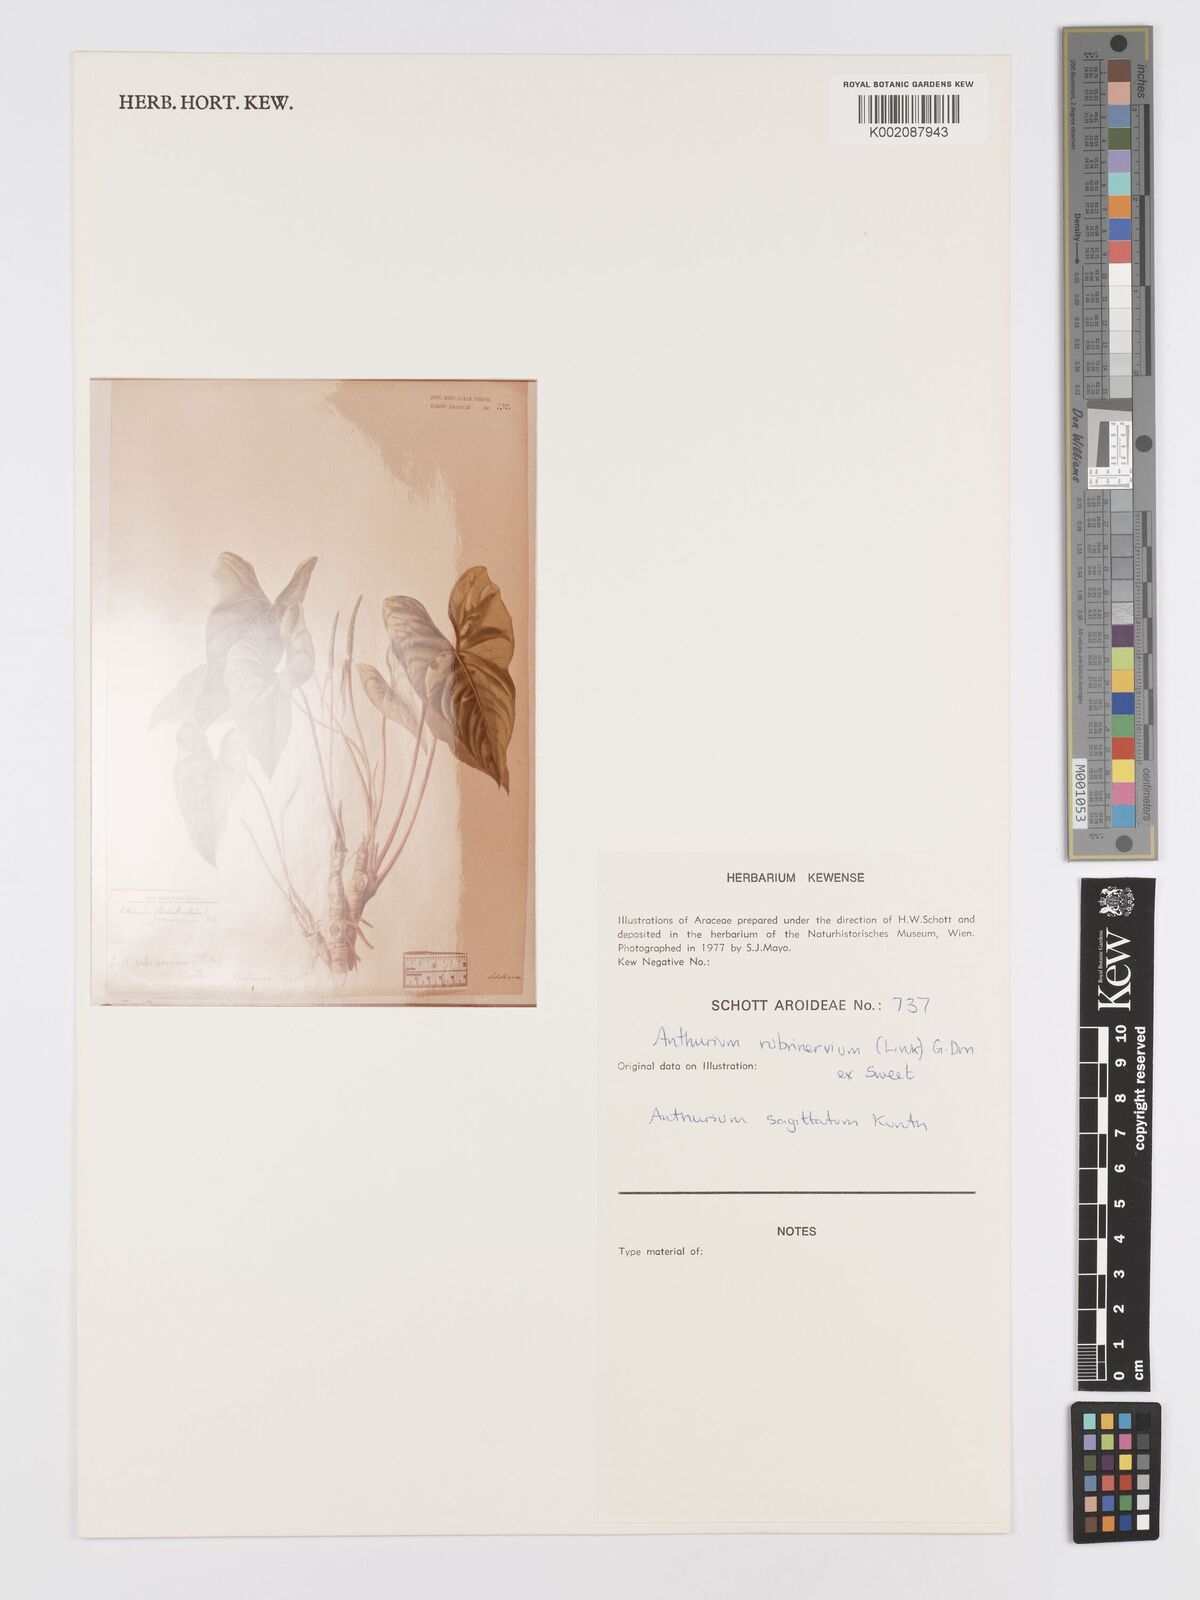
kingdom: Plantae
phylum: Tracheophyta
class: Liliopsida
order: Alismatales
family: Araceae
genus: Anthurium
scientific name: Anthurium sagittatum
